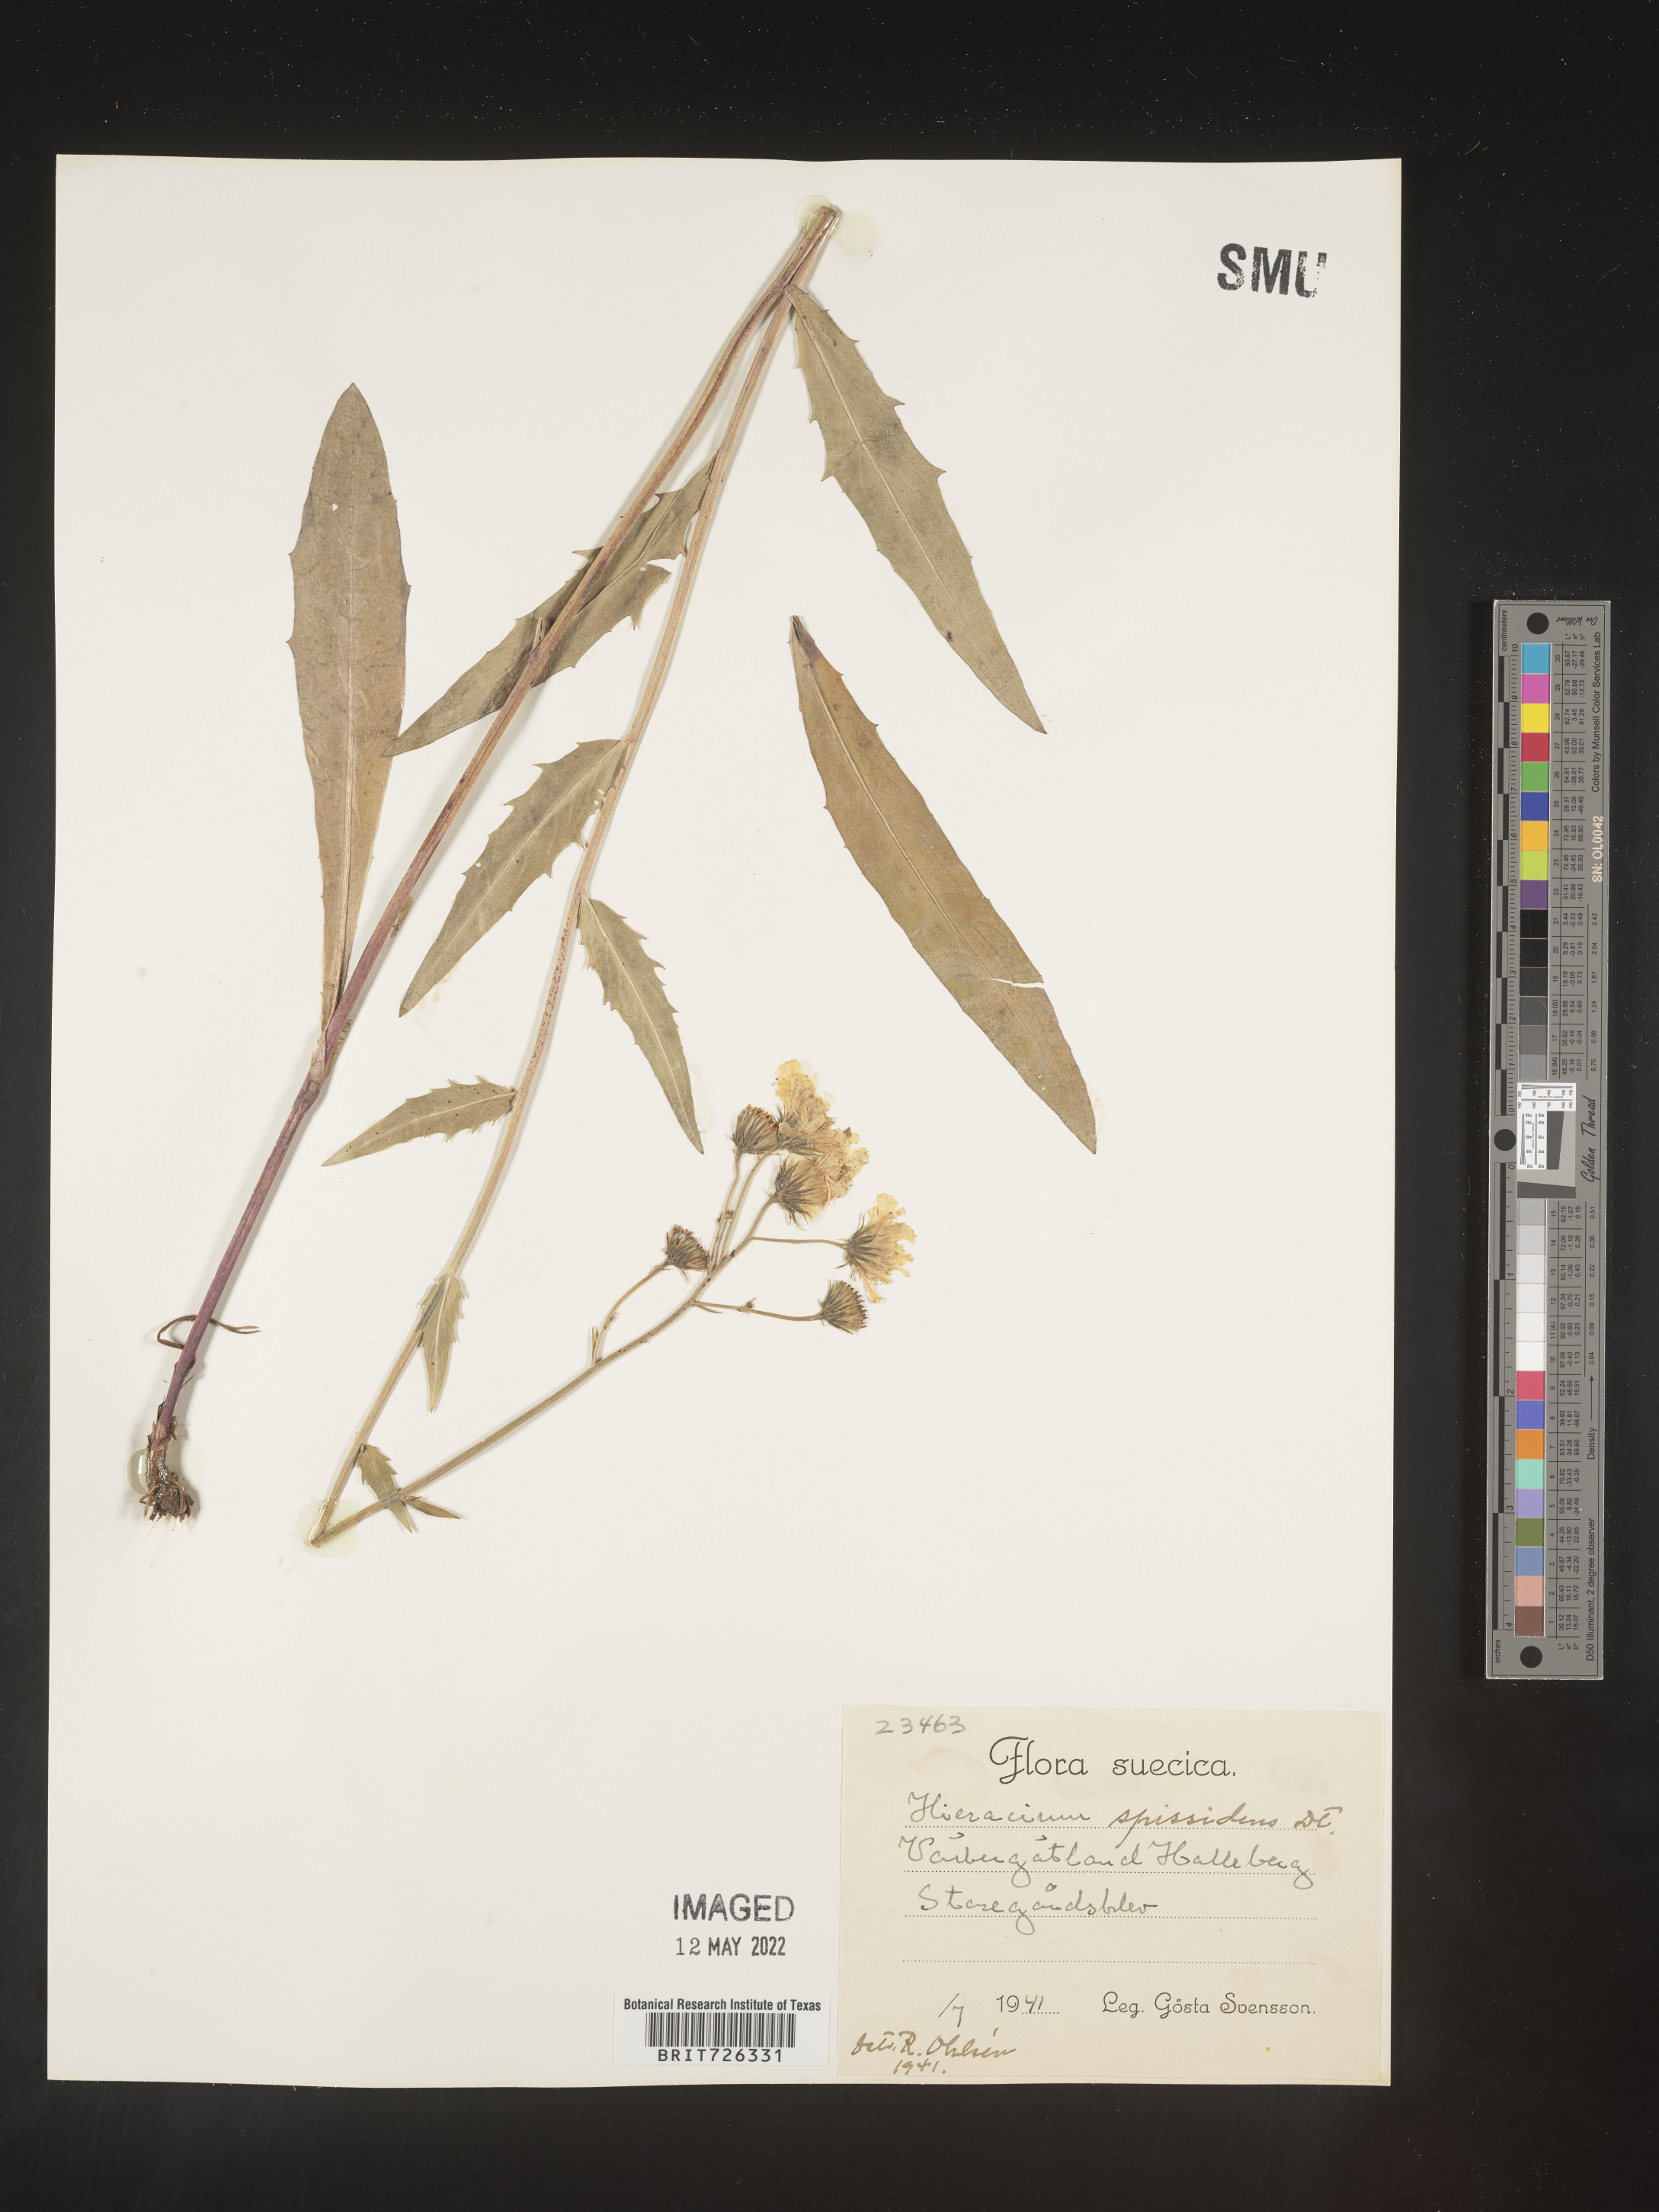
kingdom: Plantae
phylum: Tracheophyta
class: Magnoliopsida
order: Asterales
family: Asteraceae
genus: Hieracium
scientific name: Hieracium
